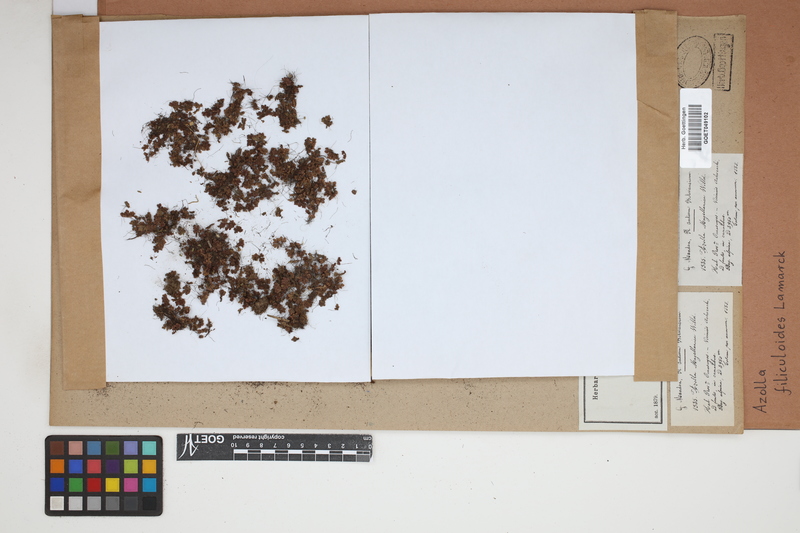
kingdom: Plantae
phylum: Tracheophyta
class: Polypodiopsida
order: Salviniales
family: Salviniaceae
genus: Azolla
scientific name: Azolla filiculoides
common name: Water fern
